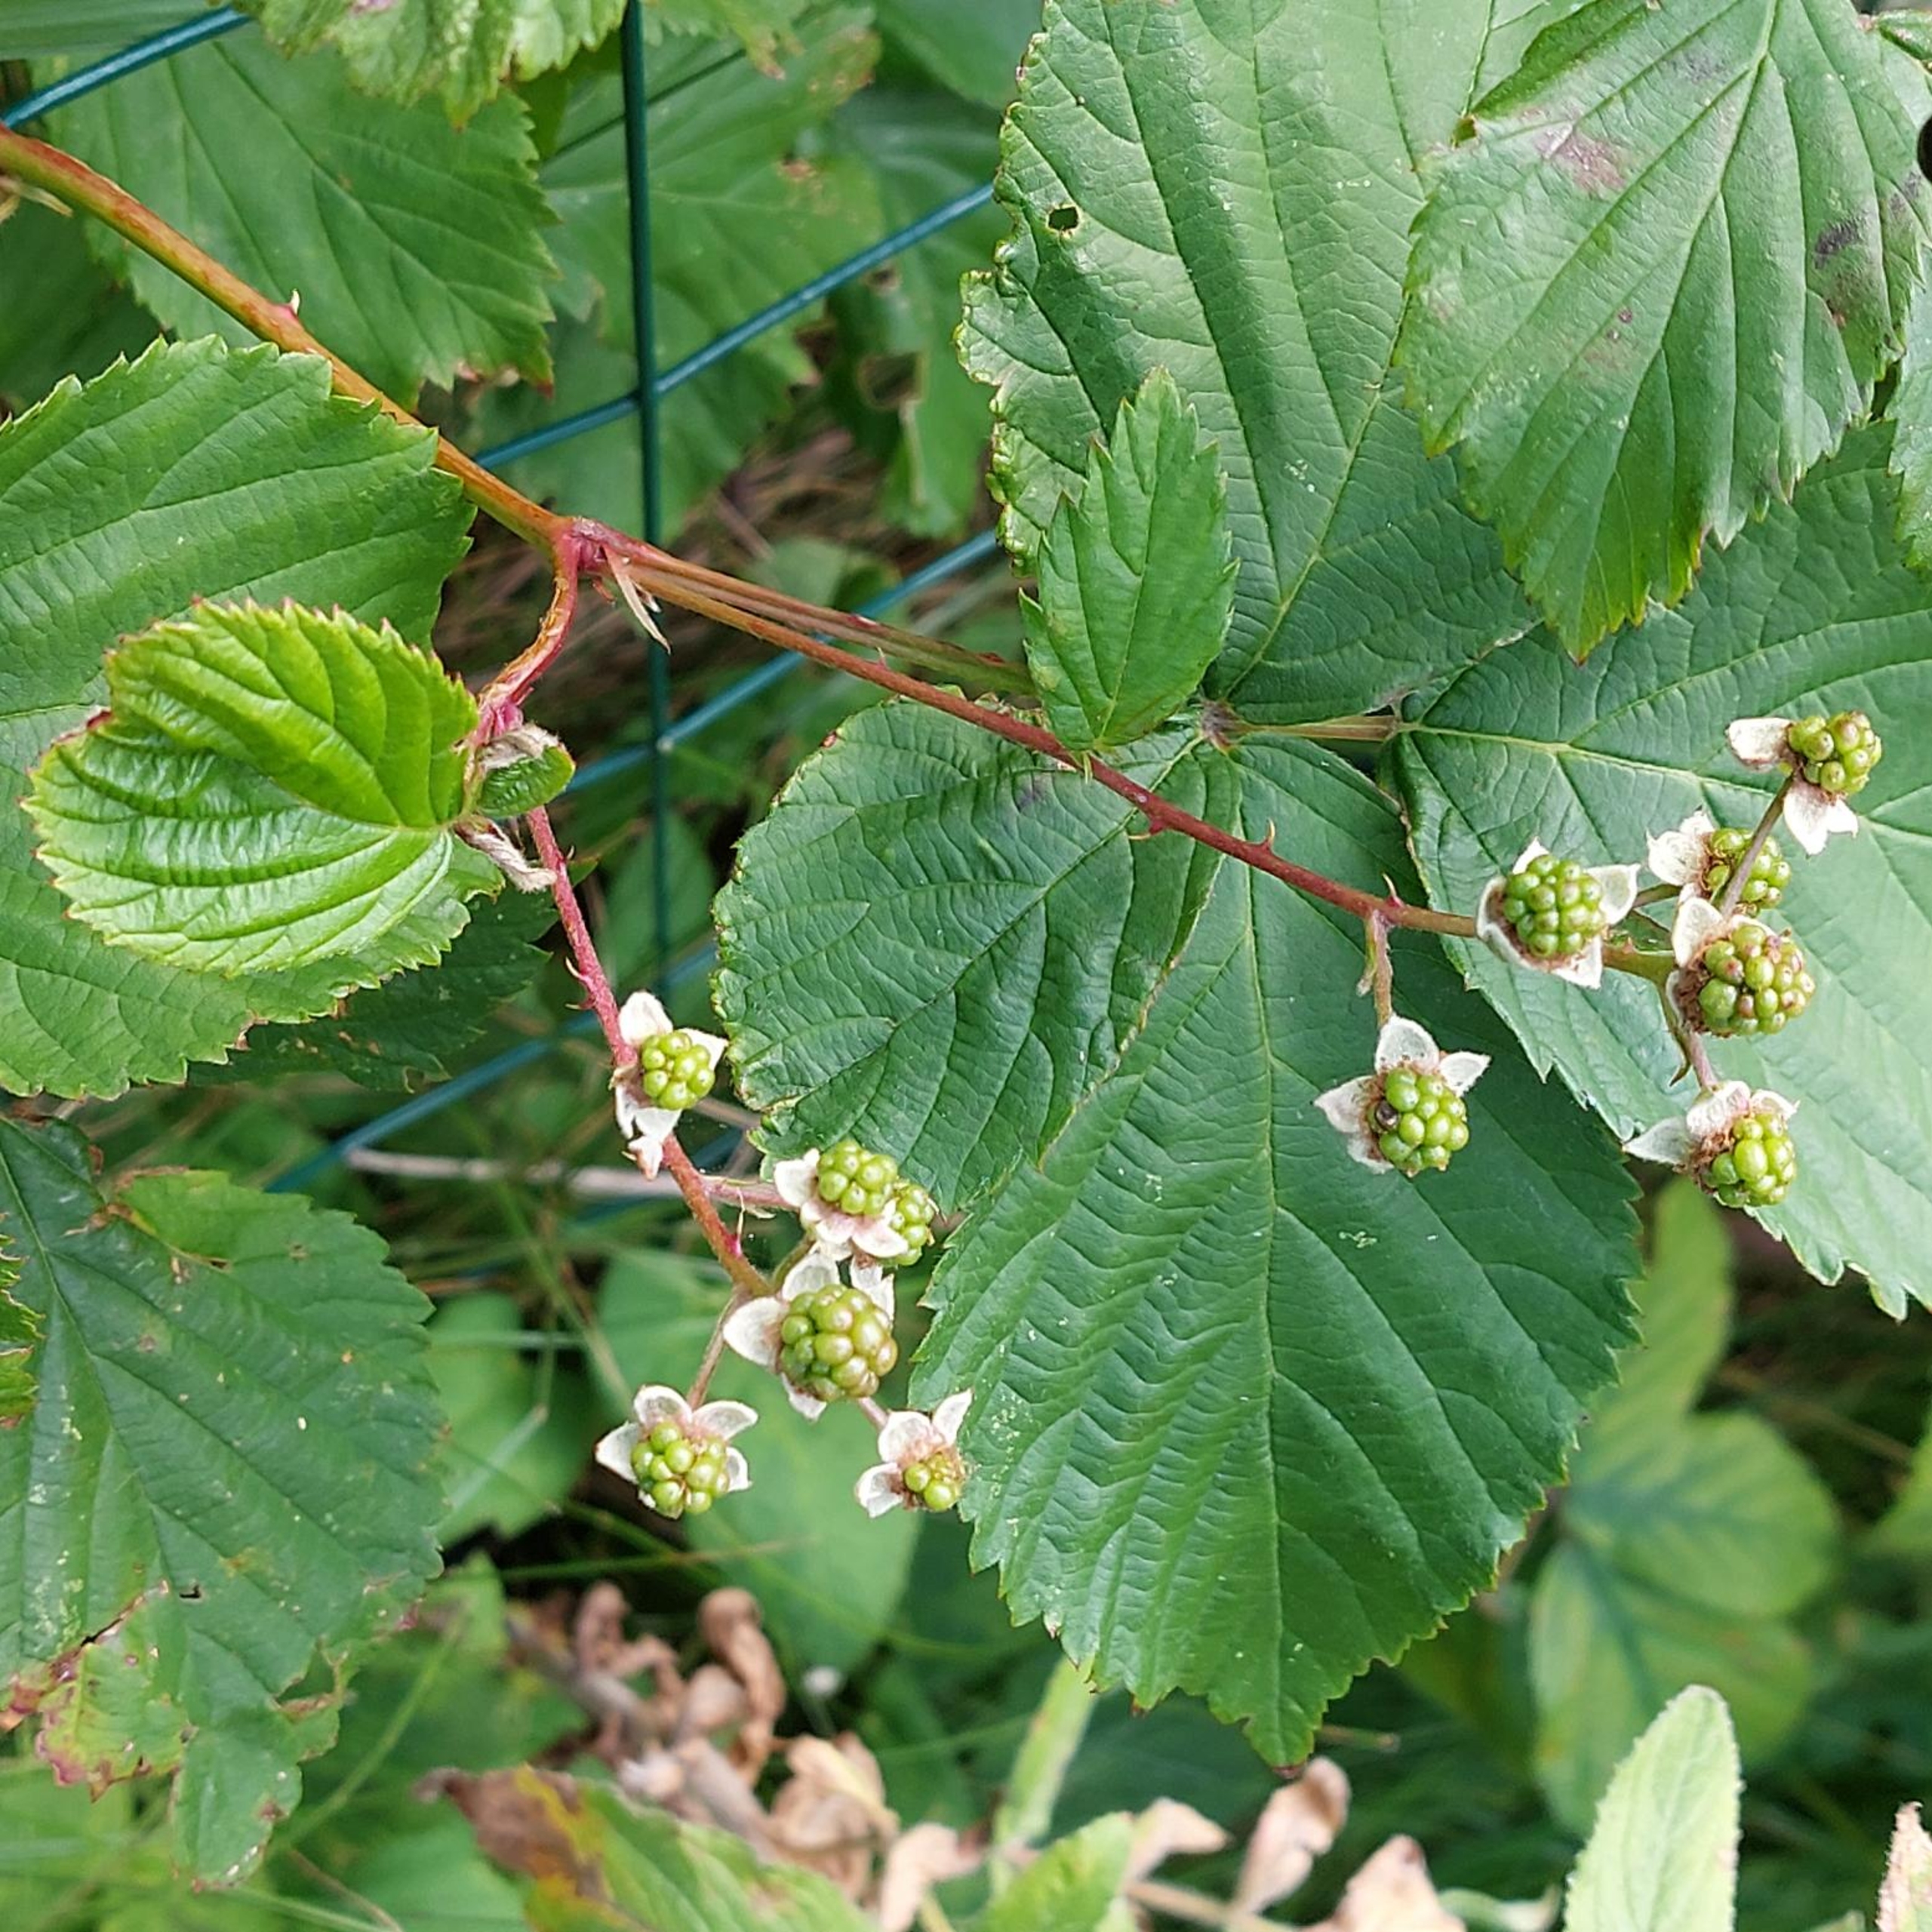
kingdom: Plantae
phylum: Tracheophyta
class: Magnoliopsida
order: Rosales
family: Rosaceae
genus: Rubus
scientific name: Rubus plicatus
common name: Almindelig brombær
